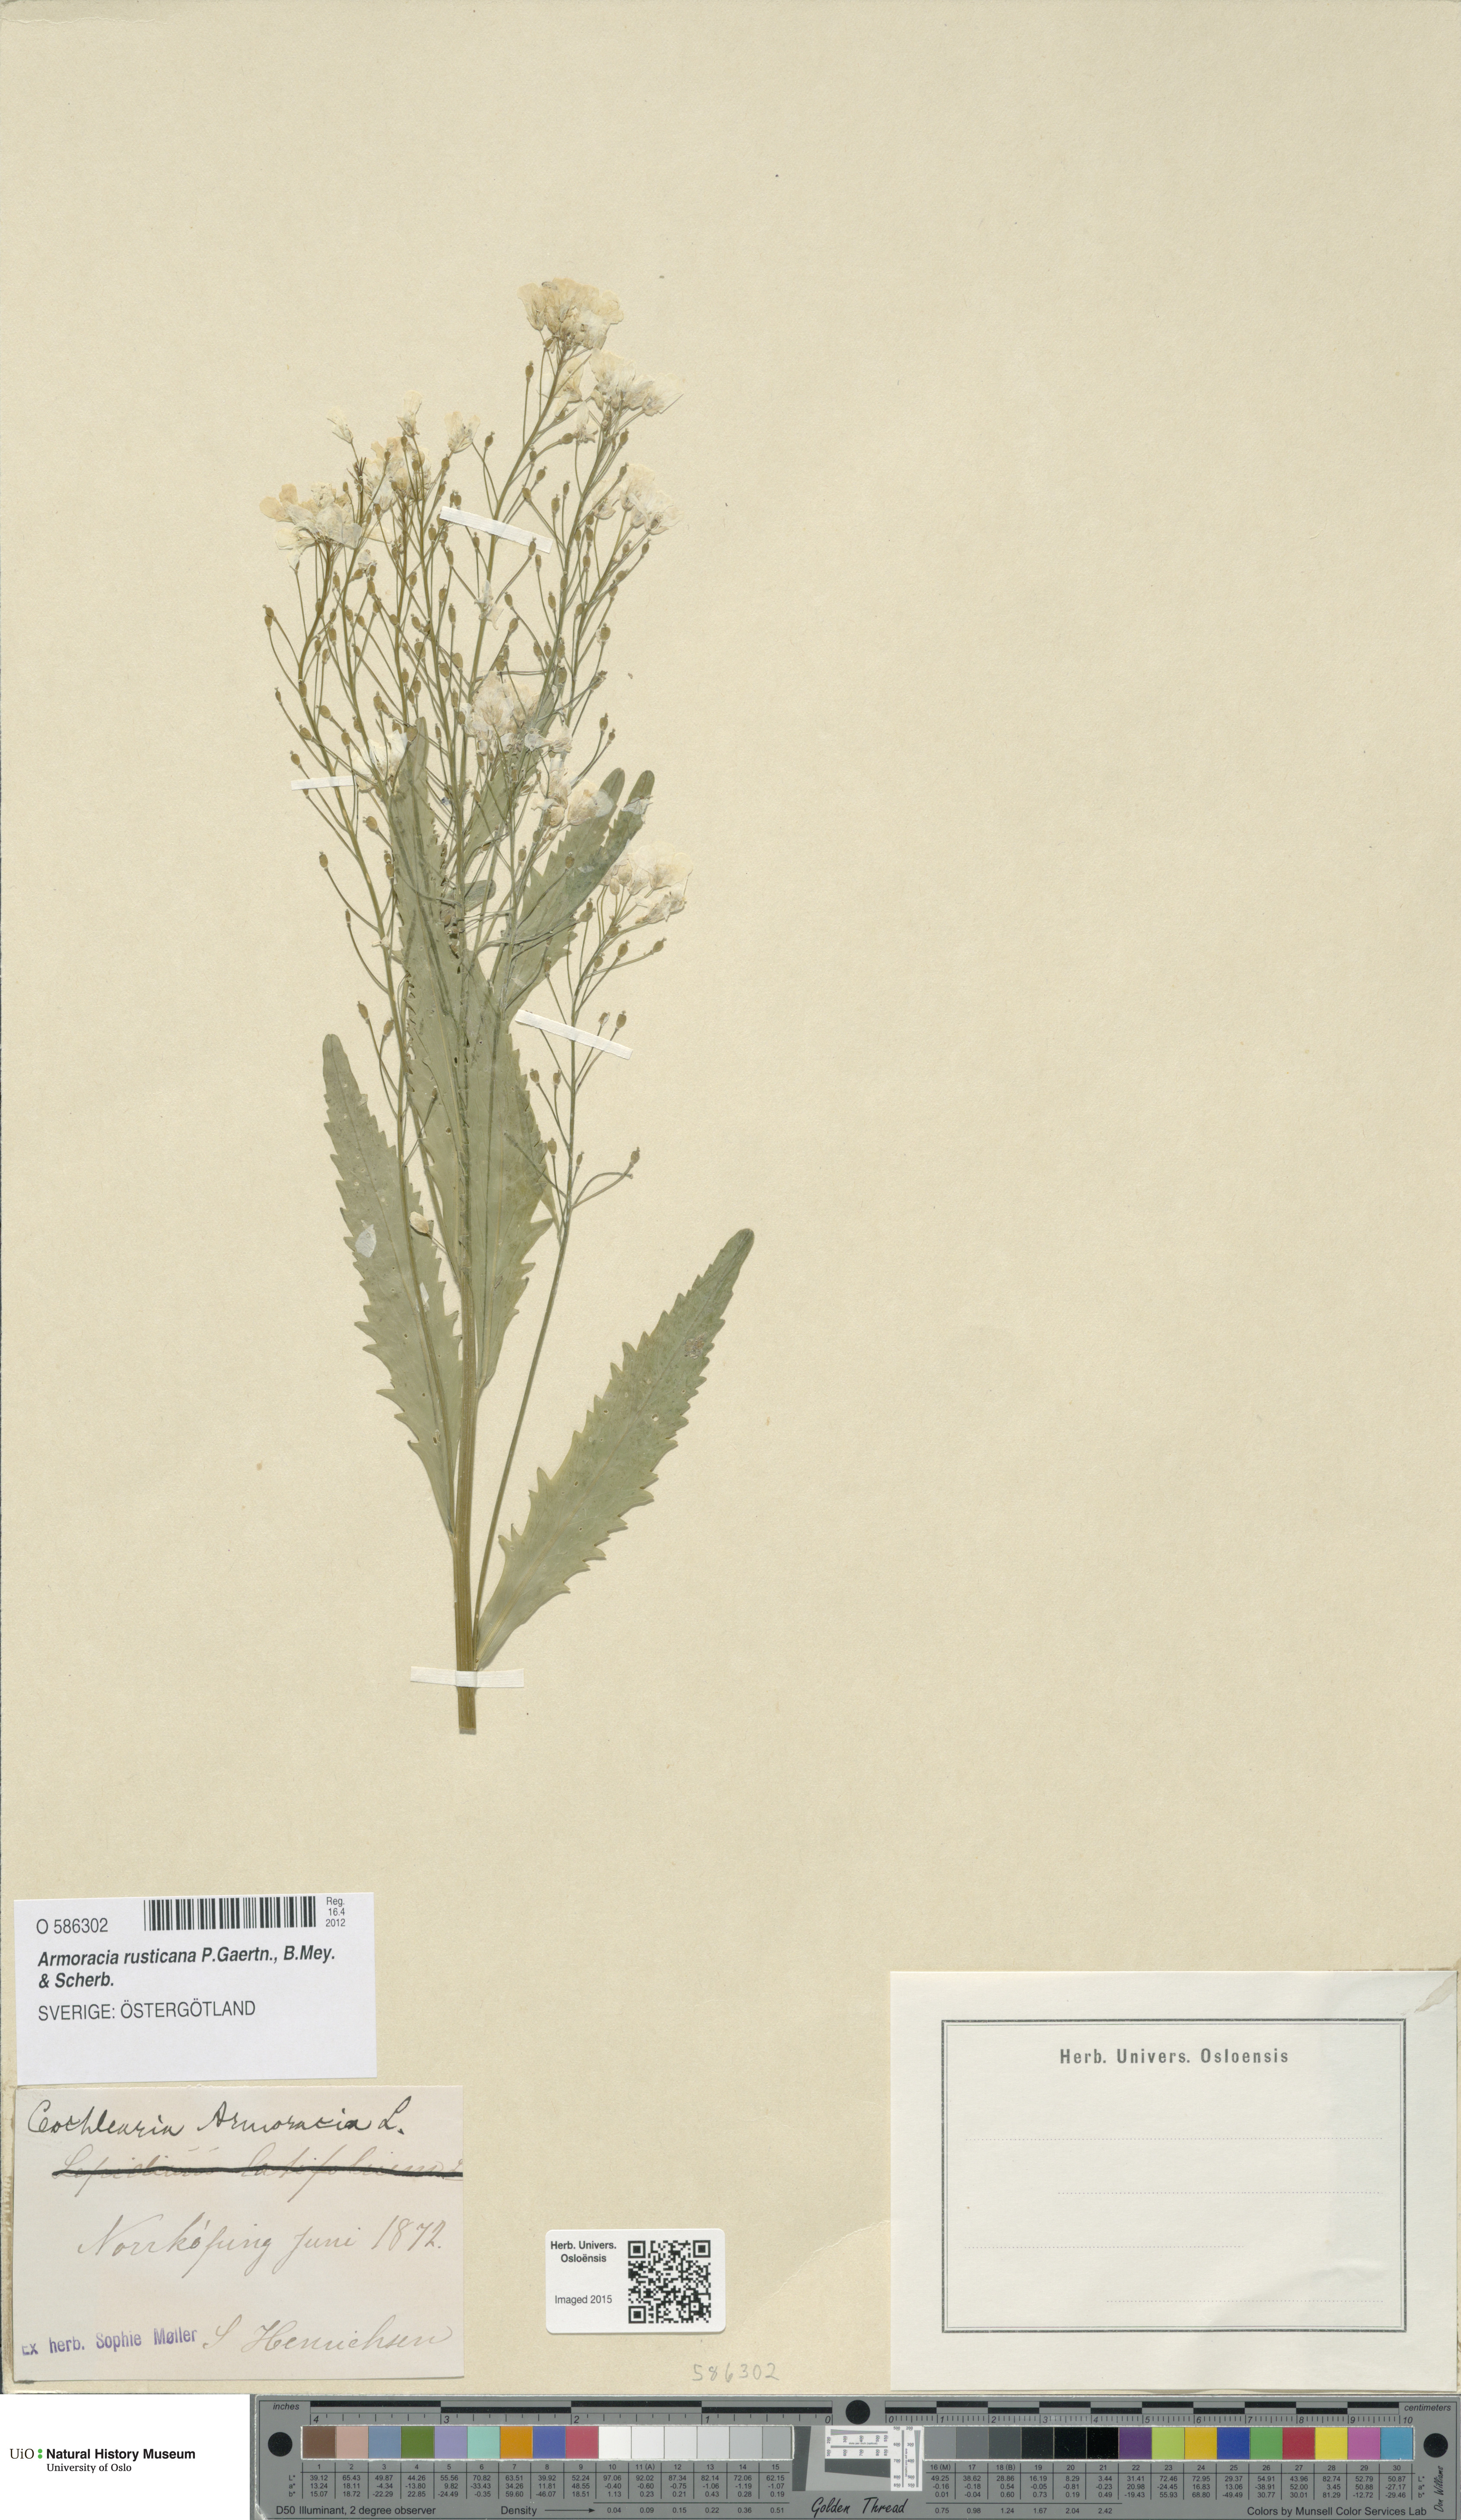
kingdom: Plantae
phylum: Tracheophyta
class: Magnoliopsida
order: Brassicales
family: Brassicaceae
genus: Armoracia
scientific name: Armoracia rusticana
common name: Horseradish
